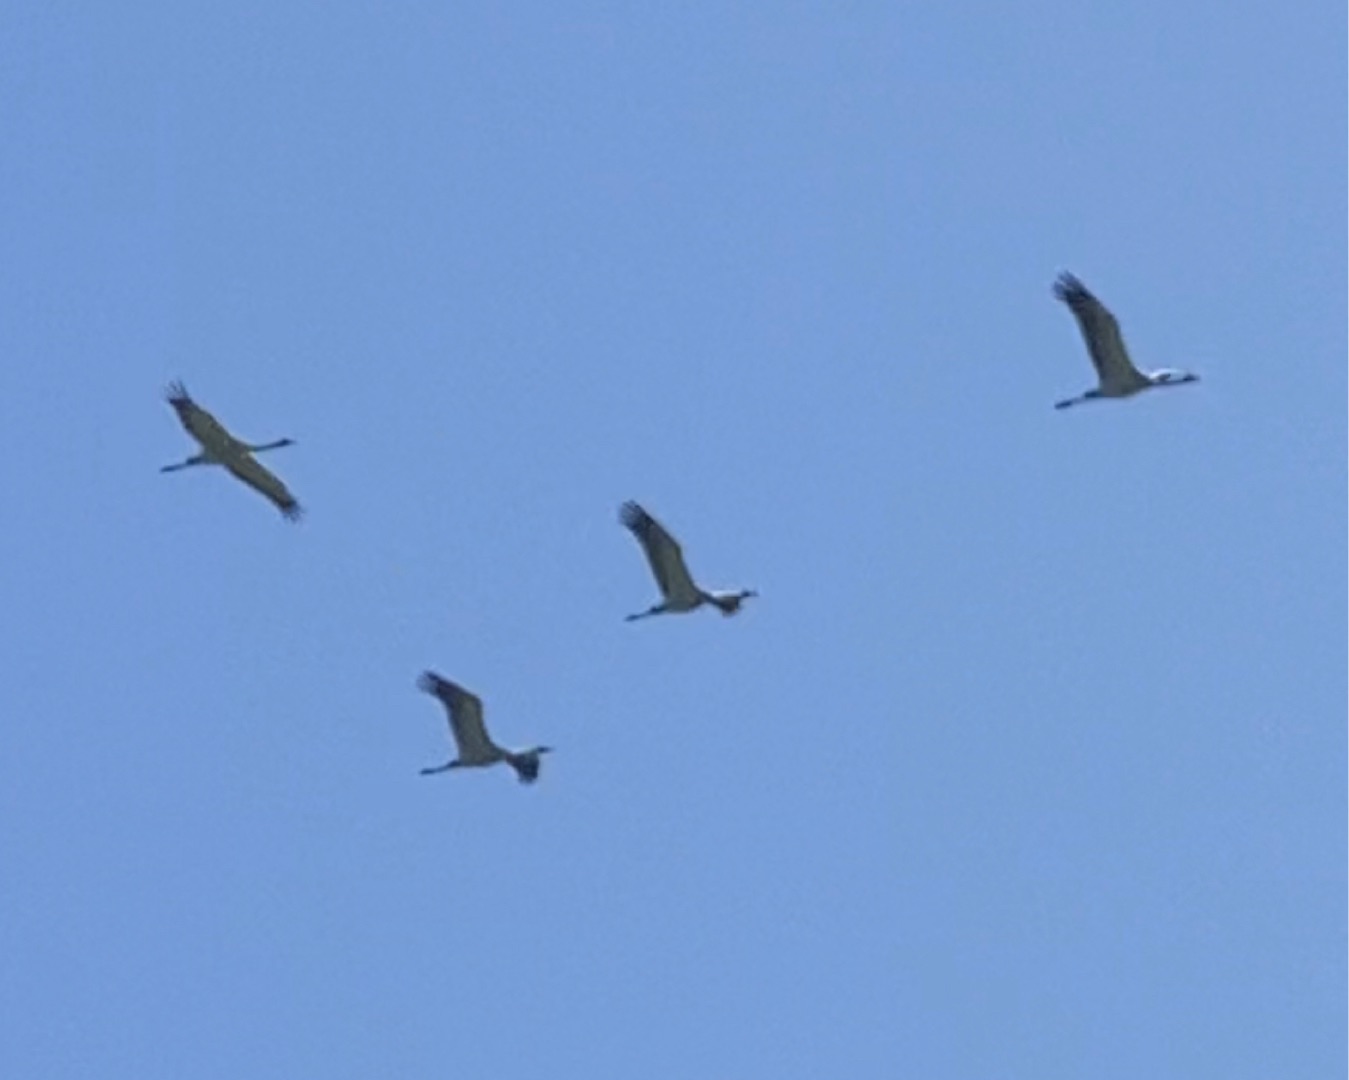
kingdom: Animalia
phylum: Chordata
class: Aves
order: Gruiformes
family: Gruidae
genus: Grus
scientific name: Grus grus
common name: Trane
